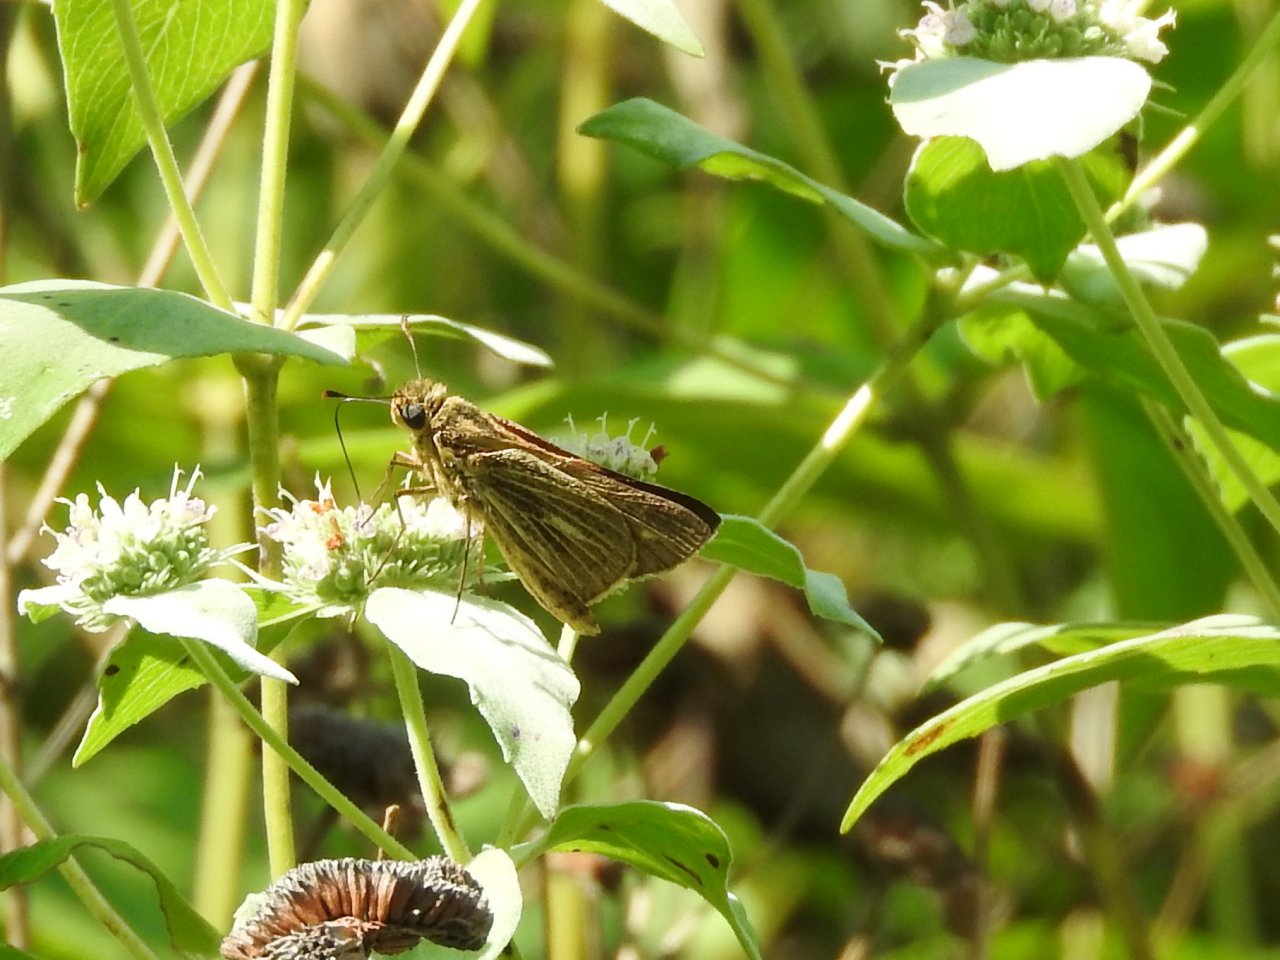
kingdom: Animalia
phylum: Arthropoda
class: Insecta
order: Lepidoptera
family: Hesperiidae
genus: Panoquina
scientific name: Panoquina panoquin
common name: Salt Marsh Skipper
